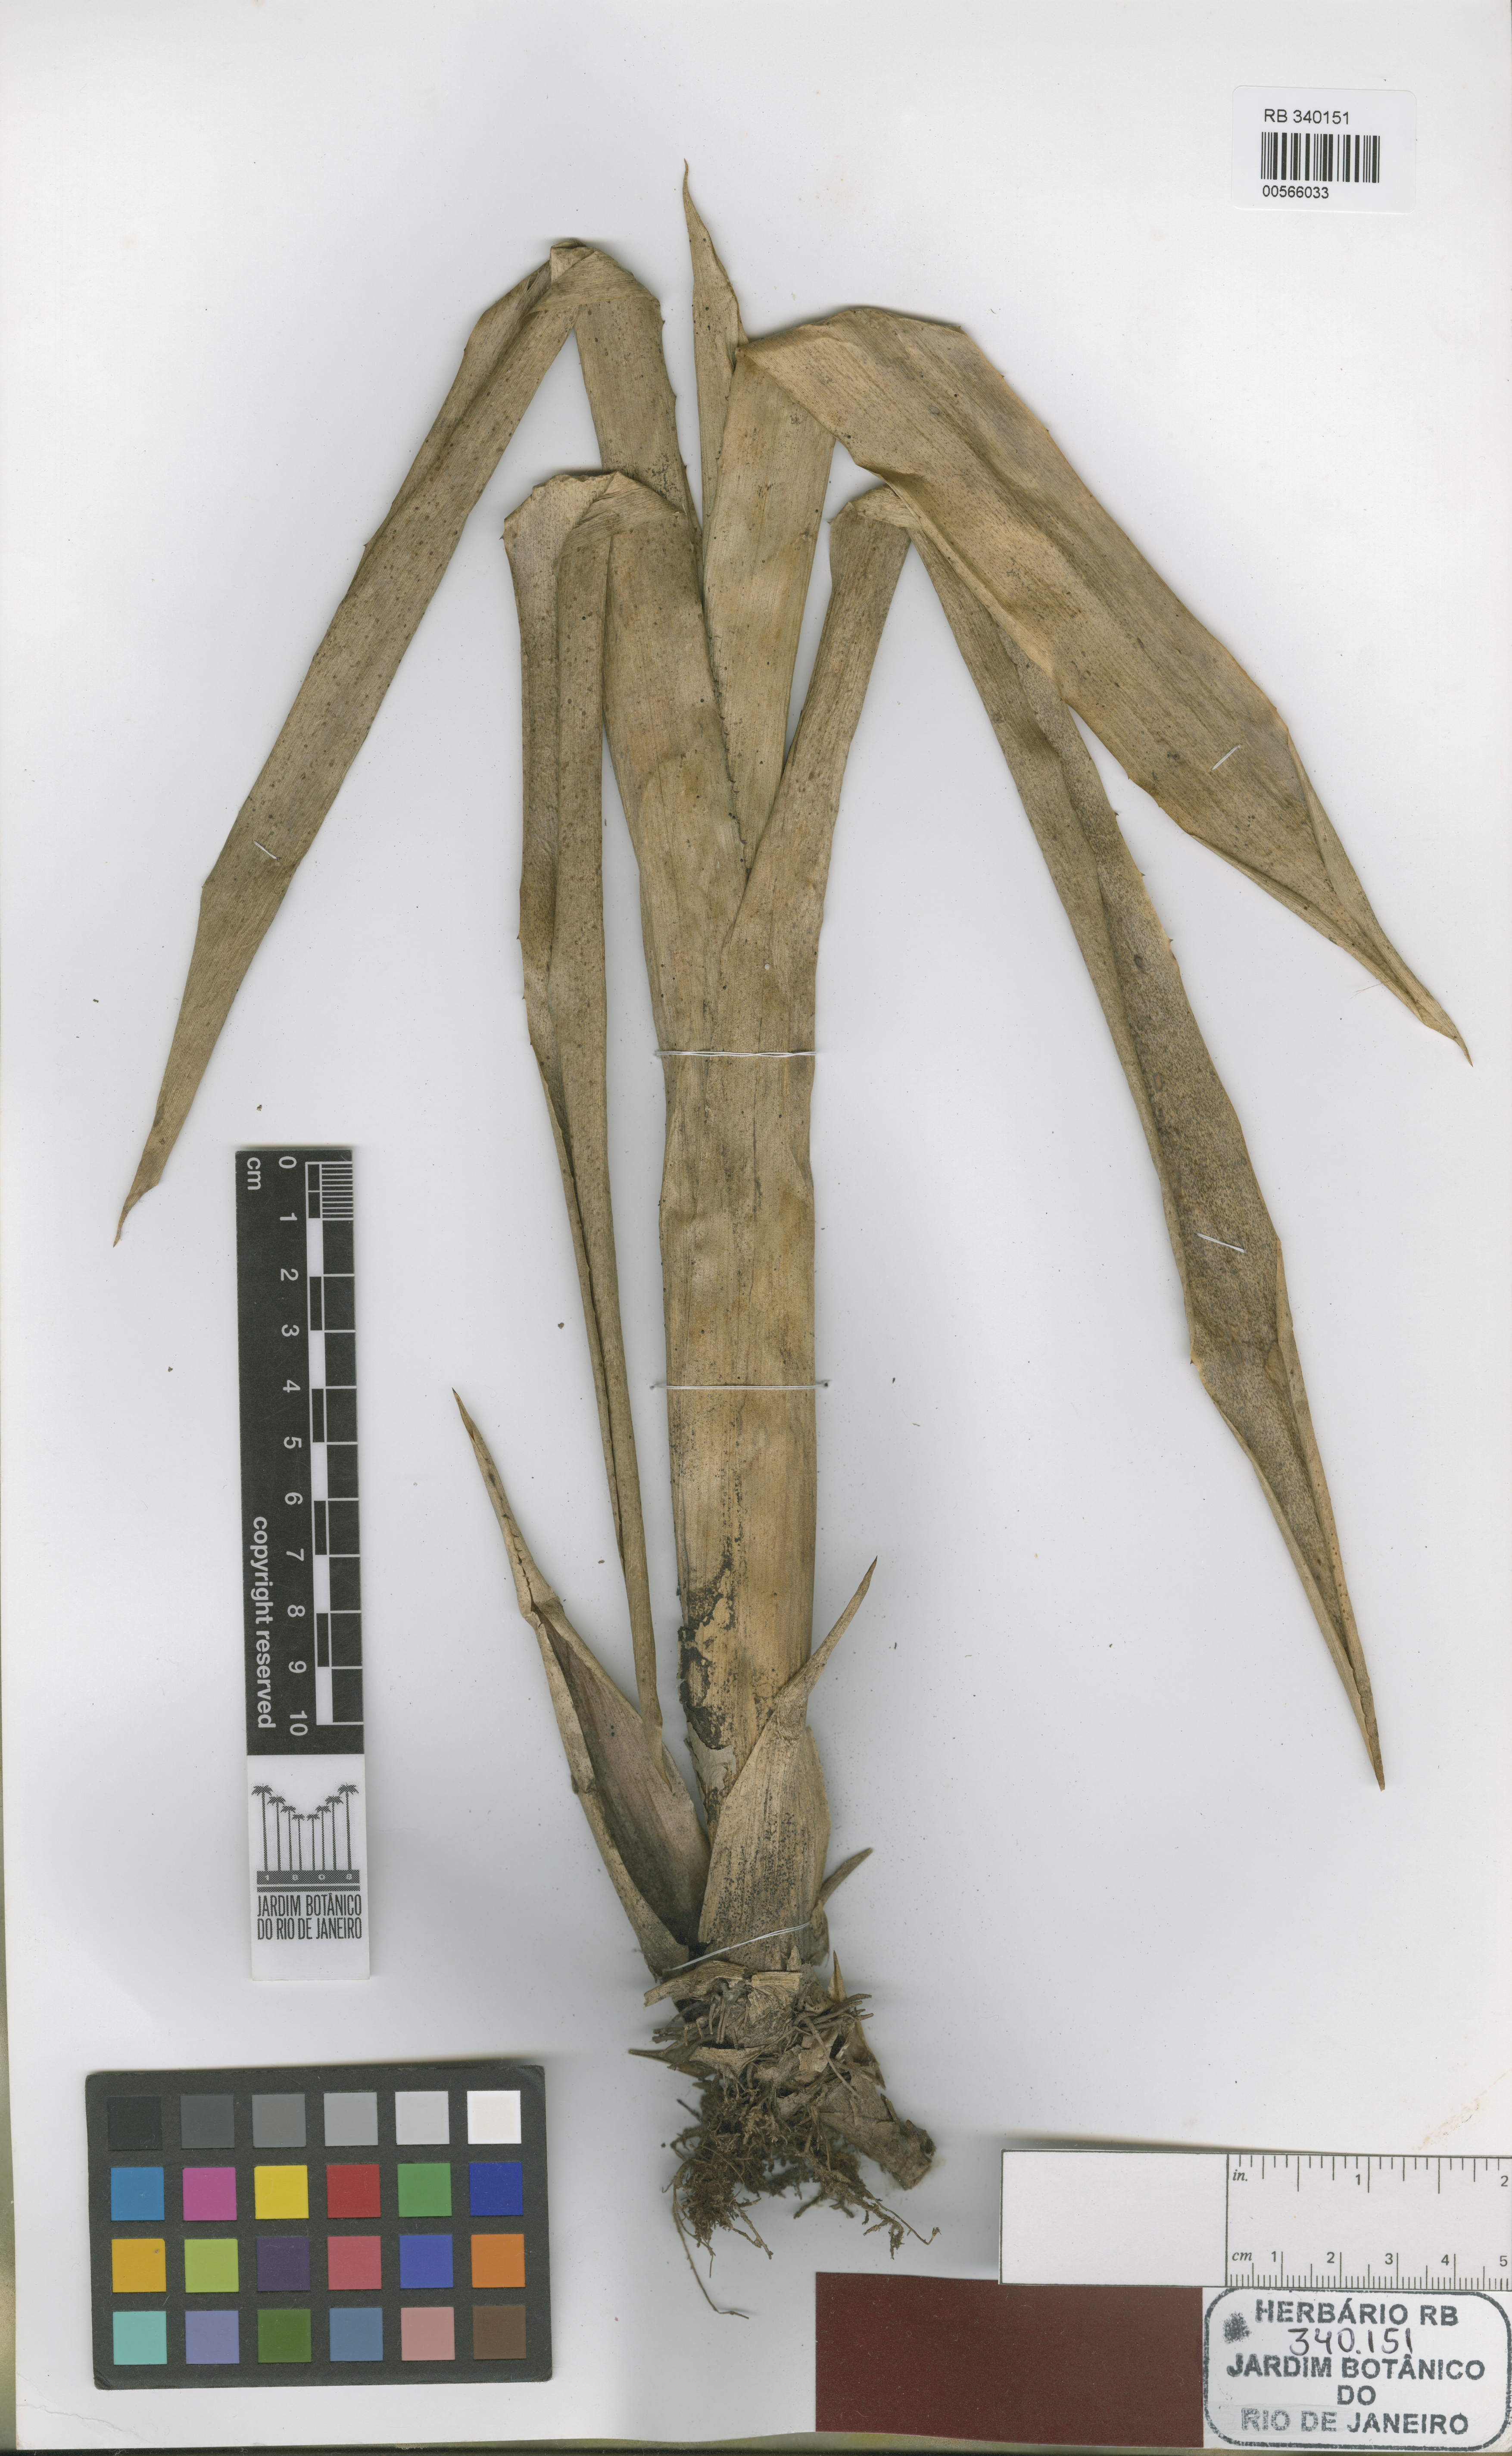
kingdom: Plantae
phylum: Tracheophyta
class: Liliopsida
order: Poales
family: Bromeliaceae
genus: Quesnelia
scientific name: Quesnelia kautskyi
